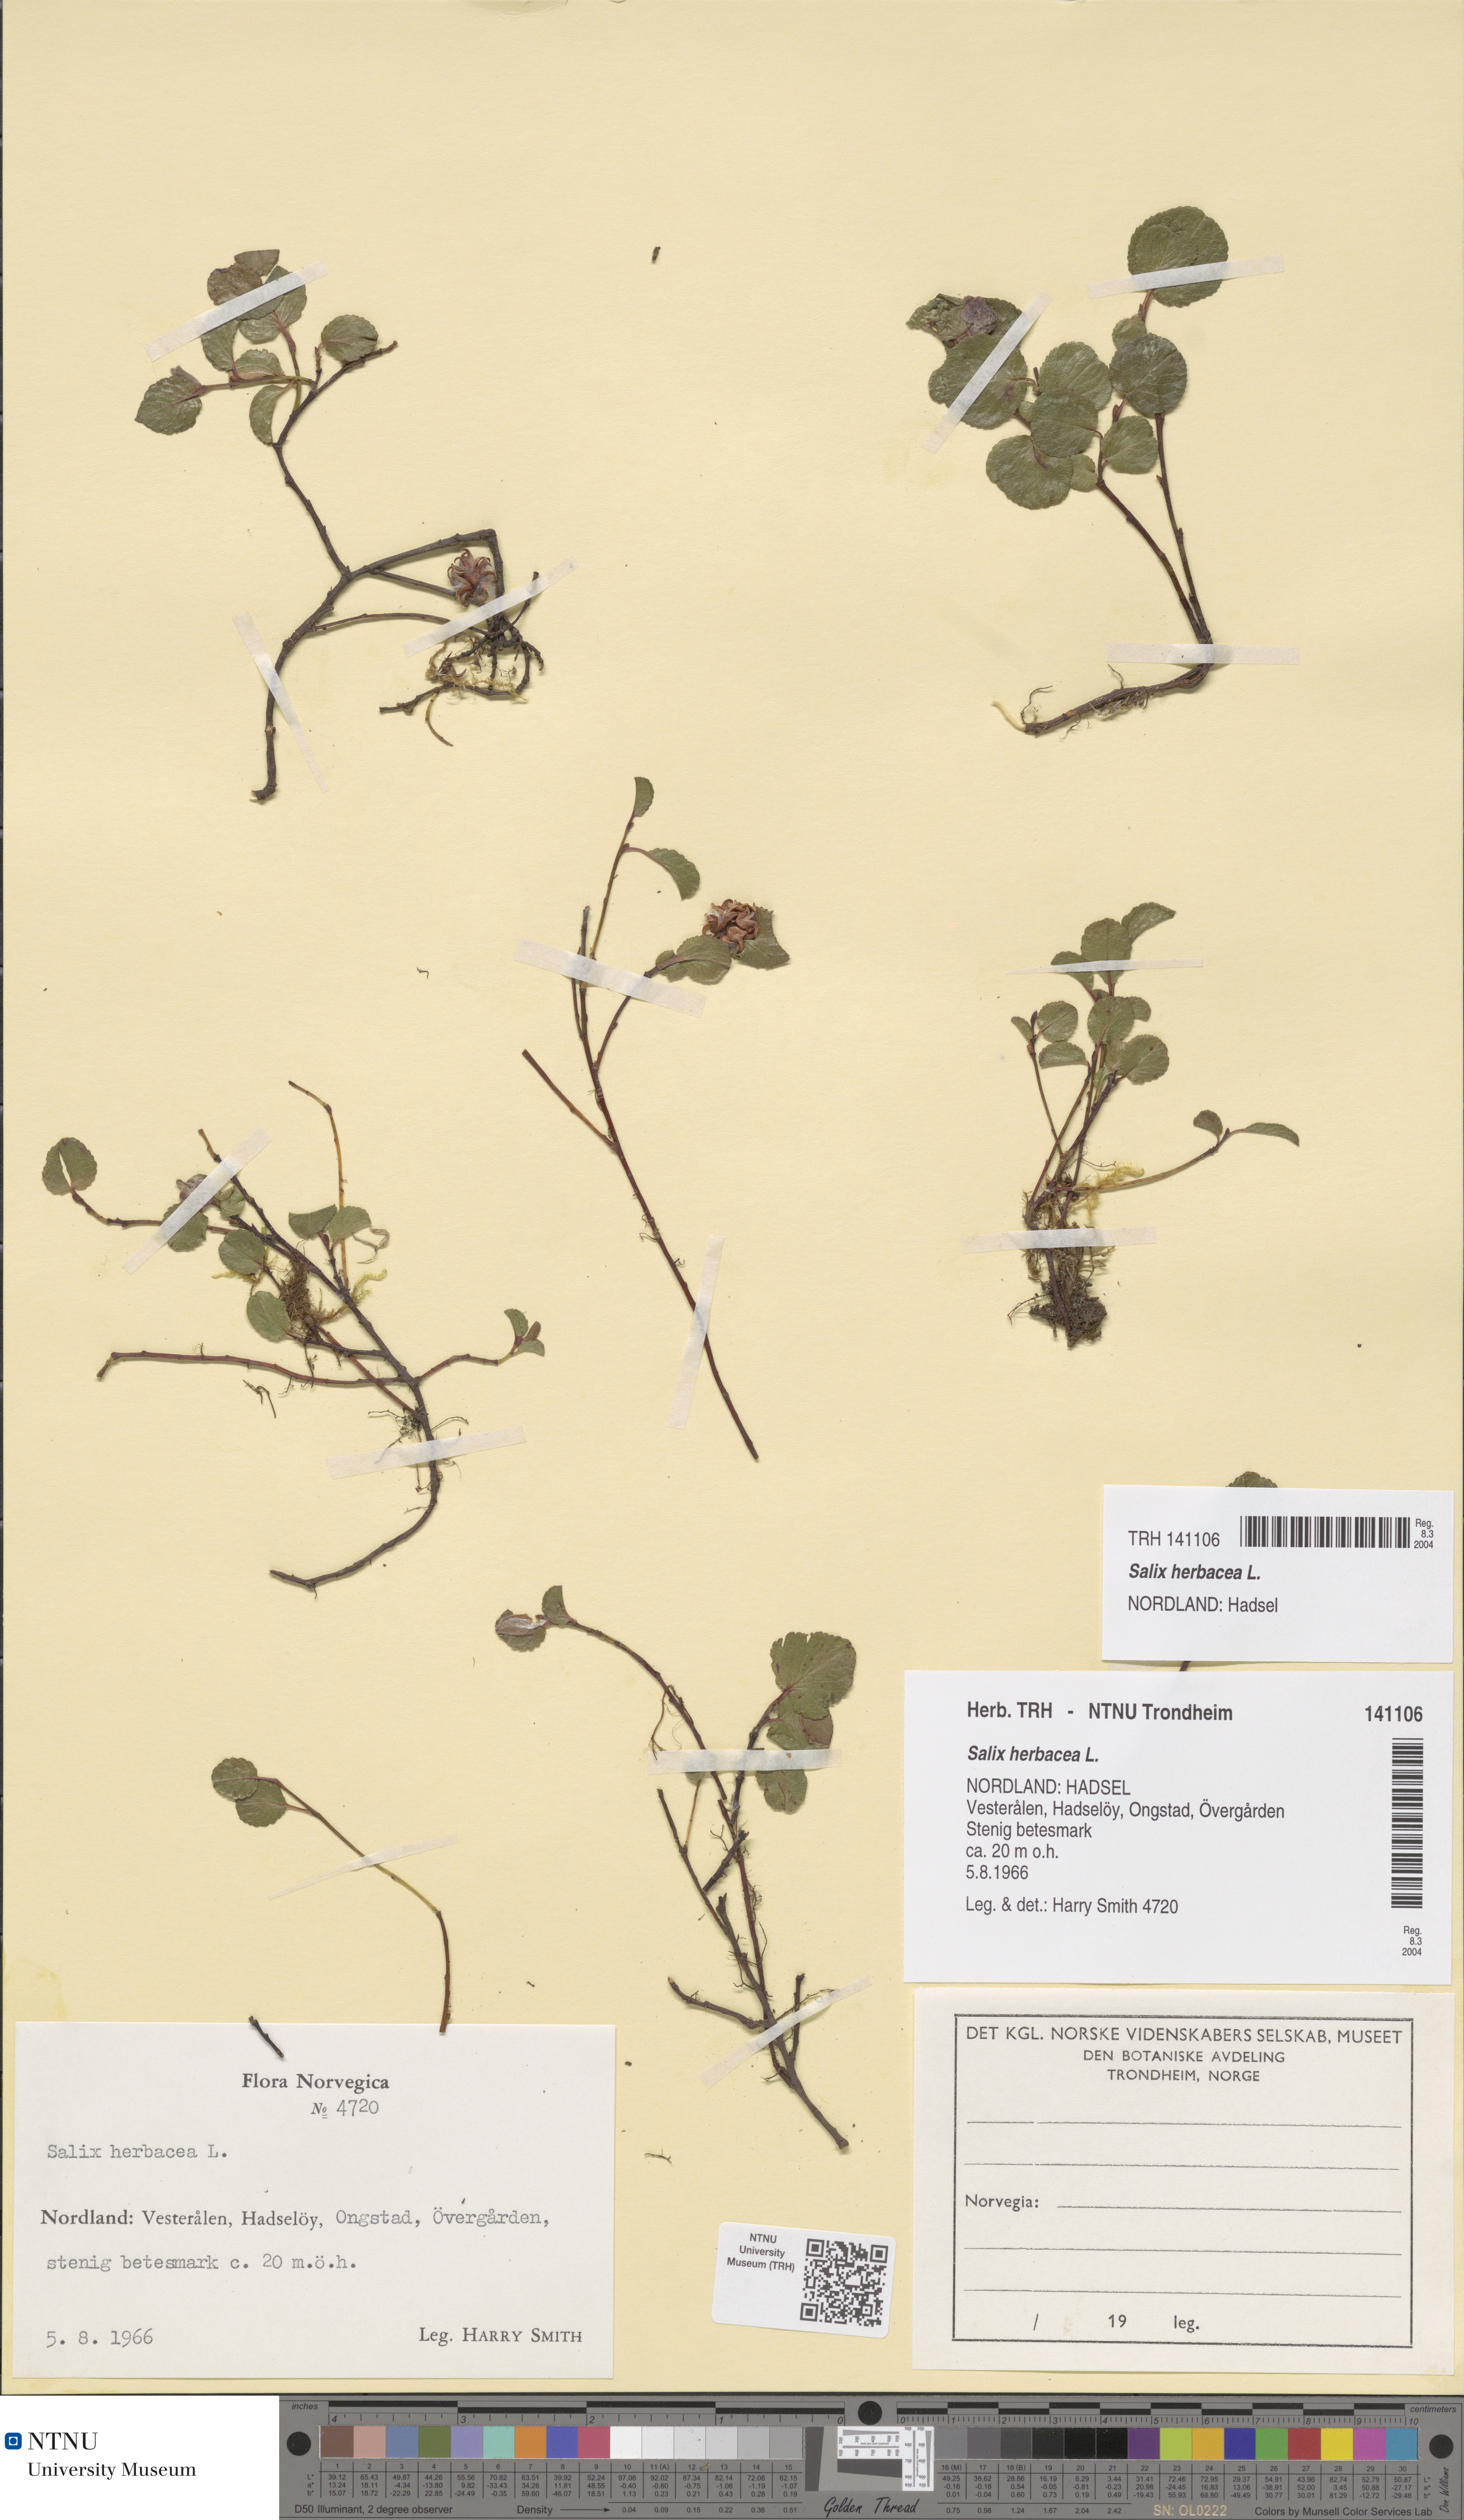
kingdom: Plantae
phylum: Tracheophyta
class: Magnoliopsida
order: Malpighiales
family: Salicaceae
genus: Salix
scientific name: Salix herbacea
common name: Dwarf willow
